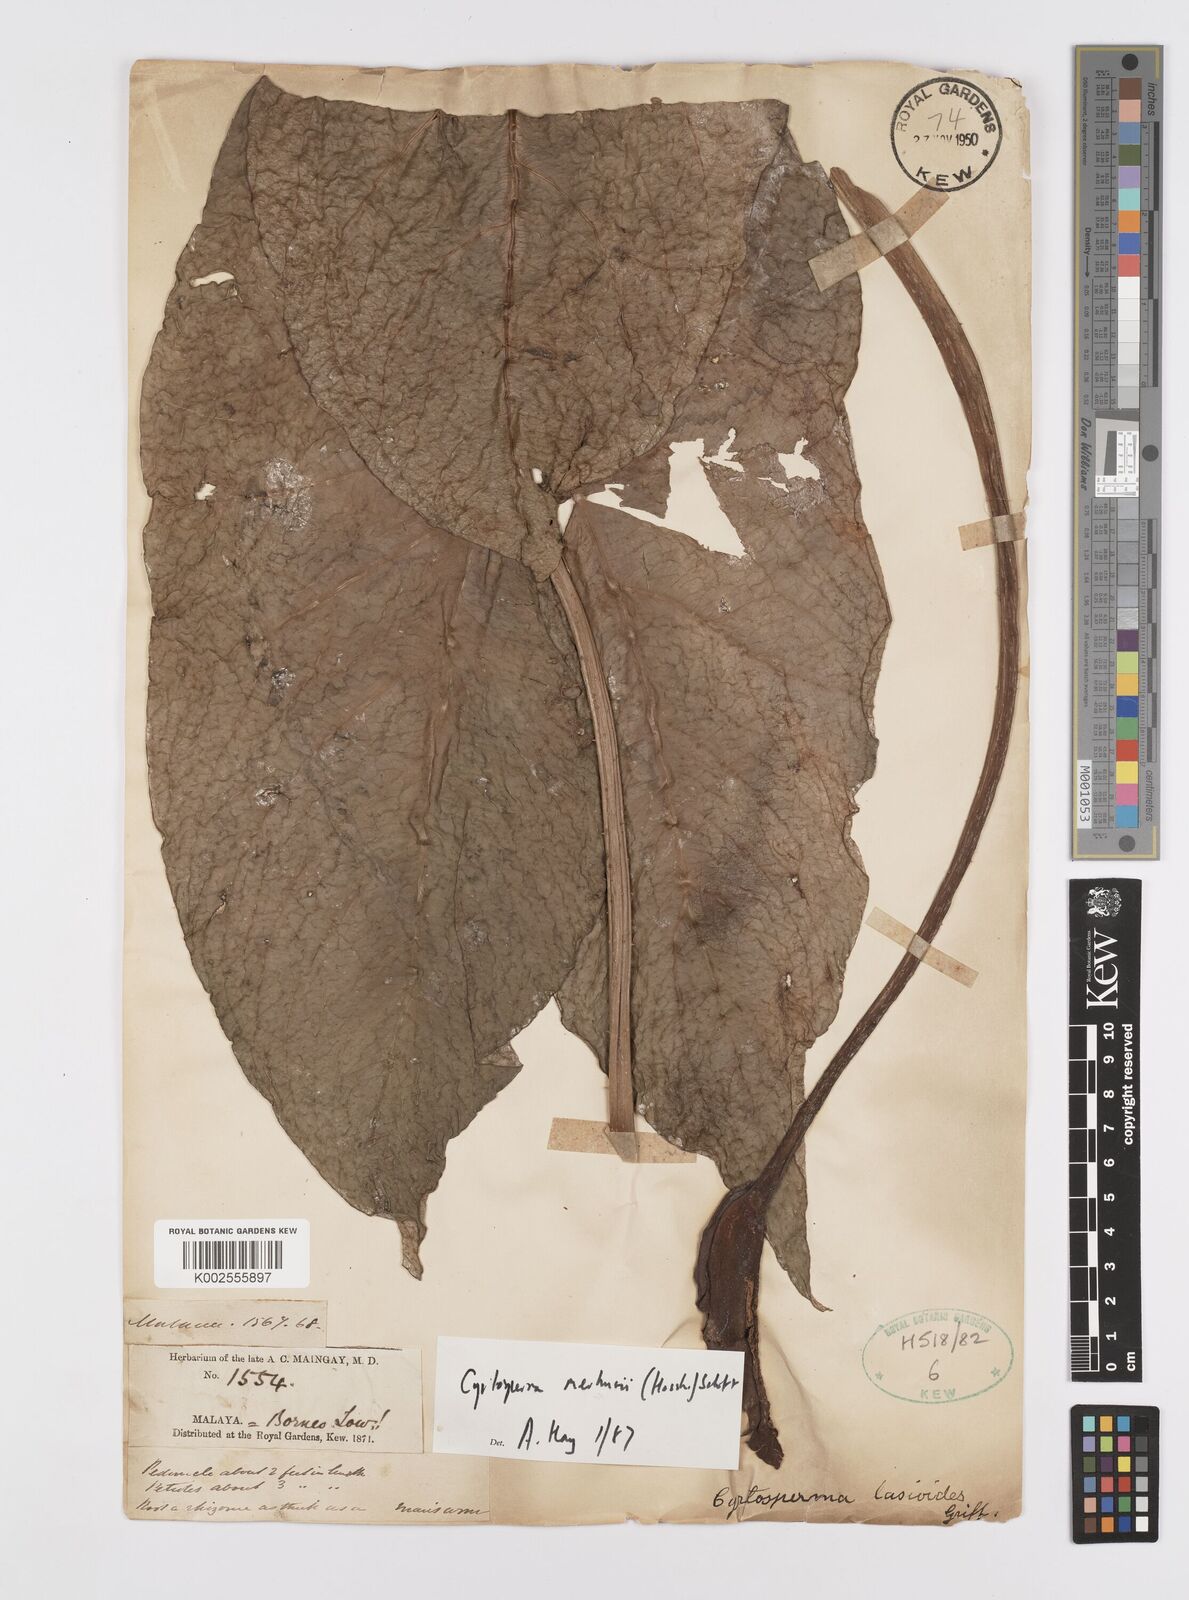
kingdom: Plantae
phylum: Tracheophyta
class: Liliopsida
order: Alismatales
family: Araceae
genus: Cyrtosperma
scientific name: Cyrtosperma merkusii
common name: Giant swamp-taro
